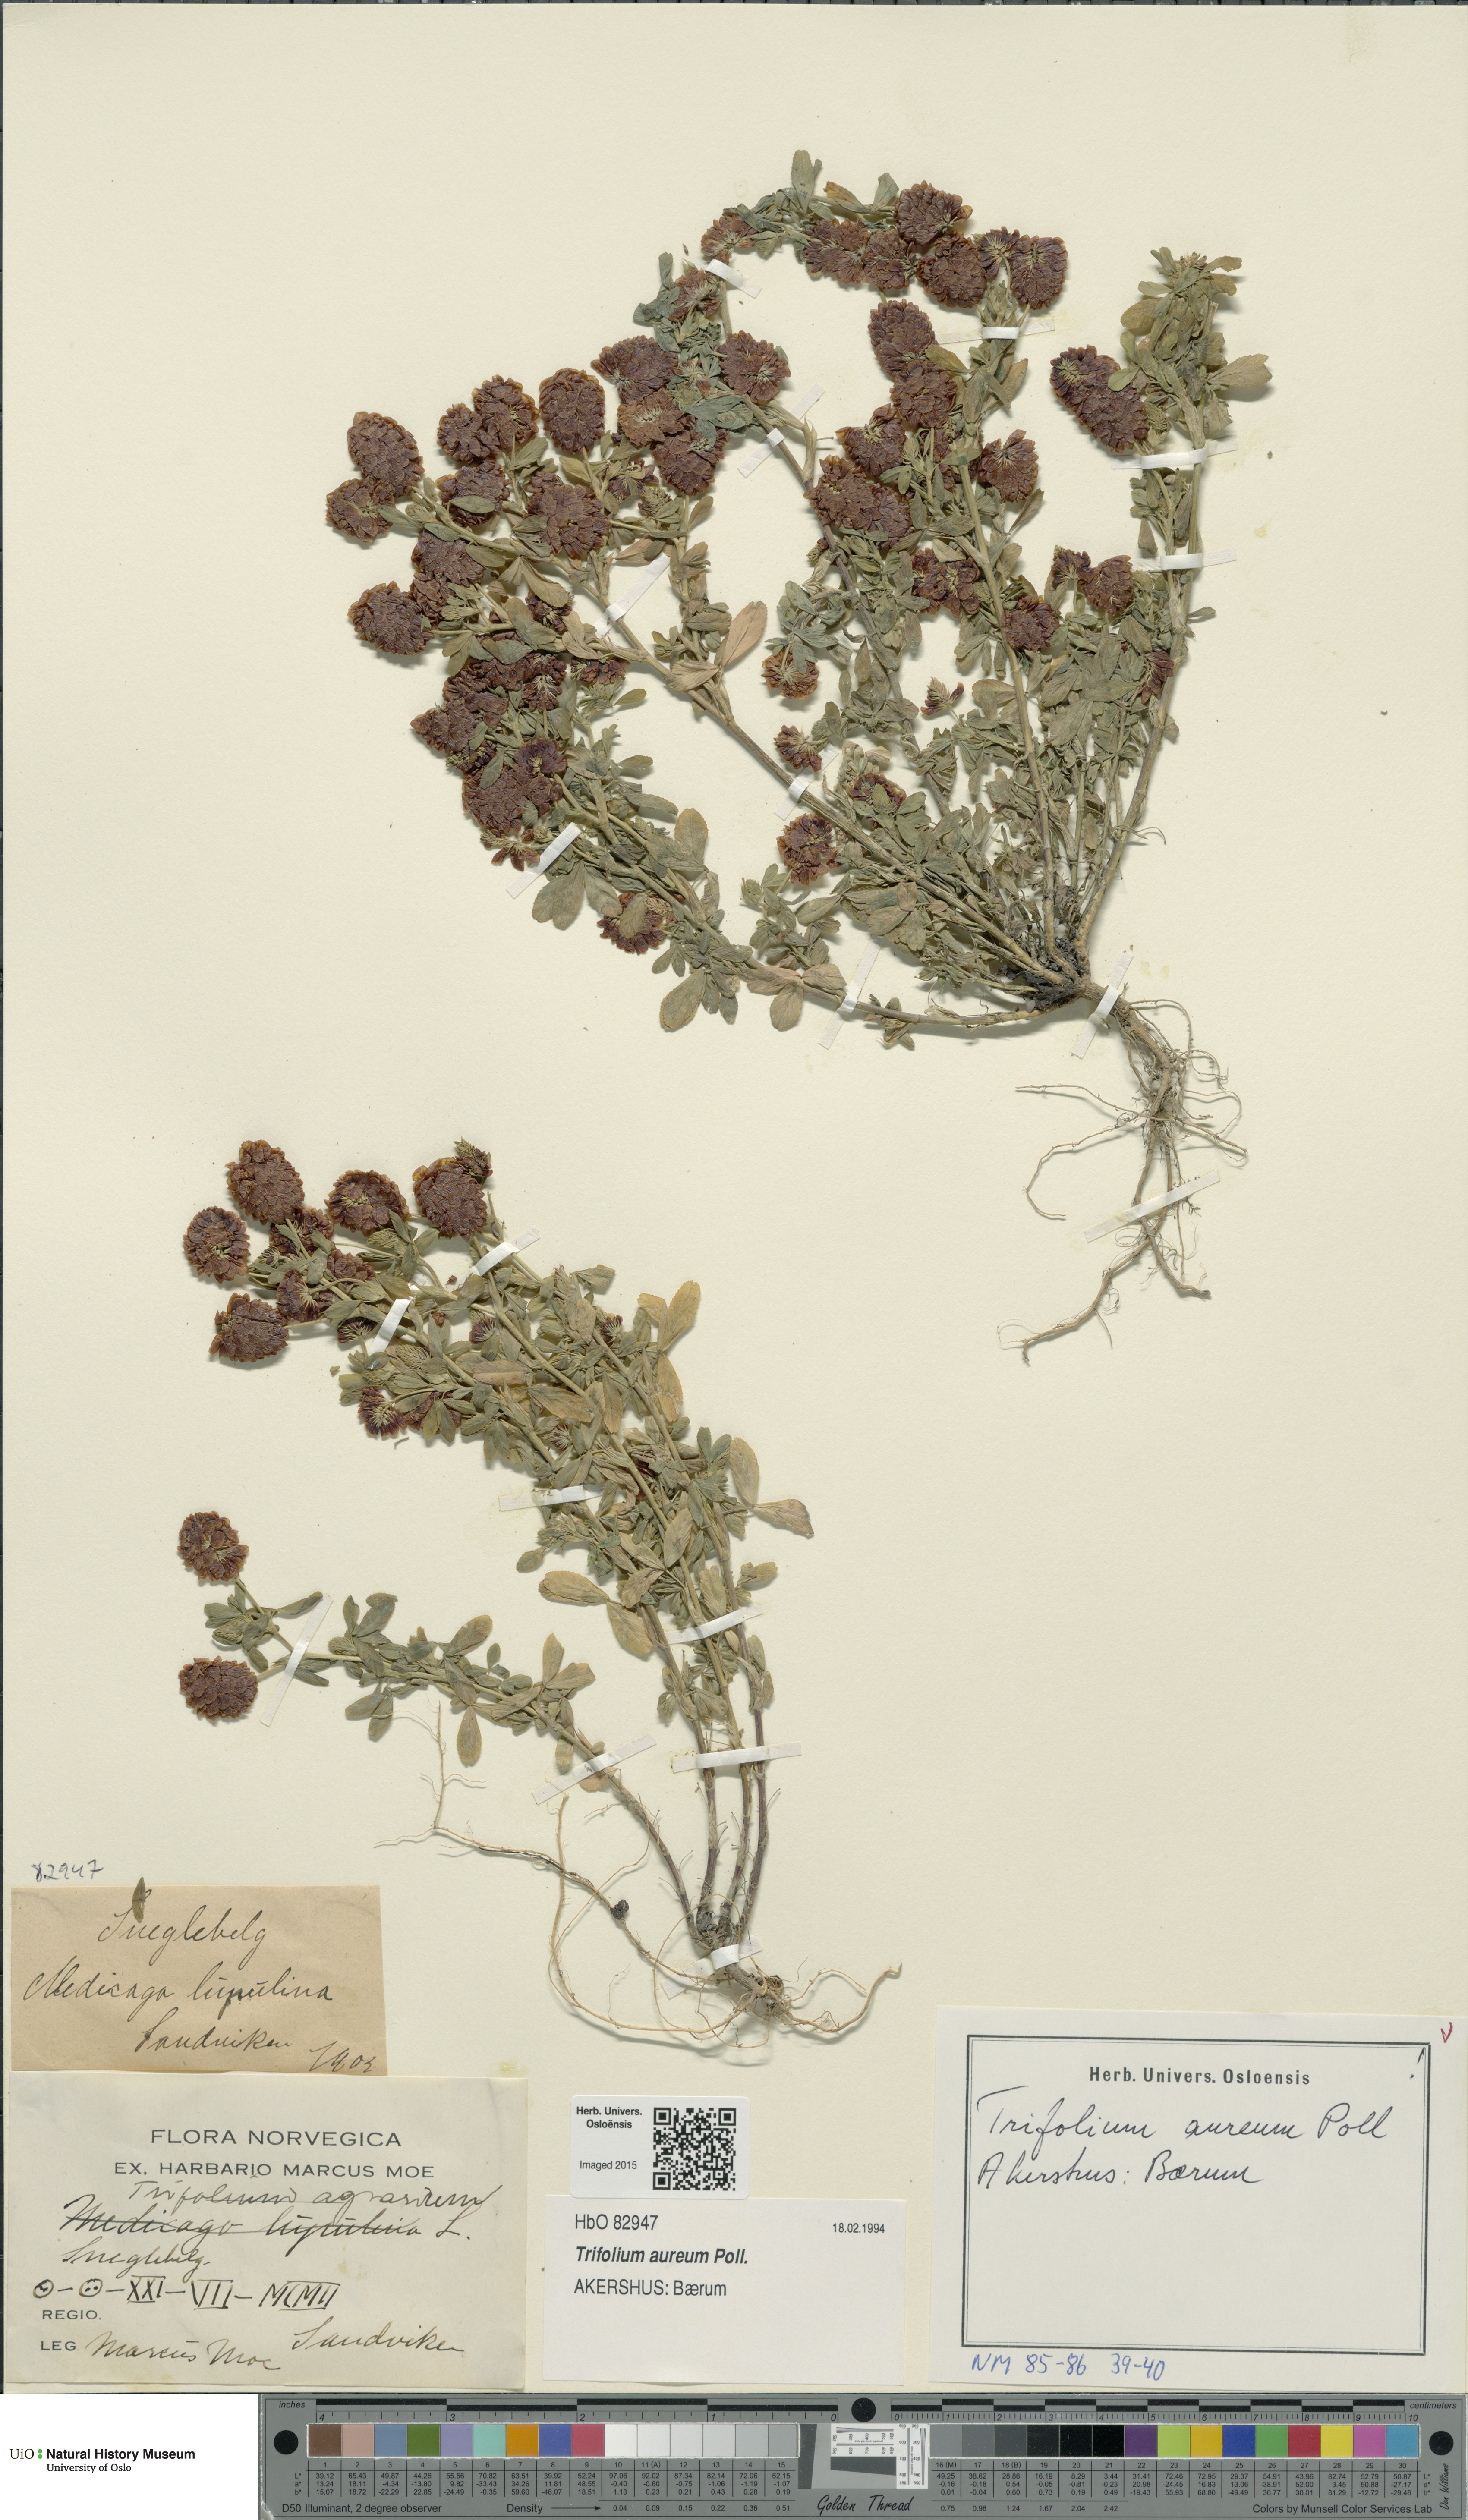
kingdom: Plantae
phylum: Tracheophyta
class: Magnoliopsida
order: Fabales
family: Fabaceae
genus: Trifolium
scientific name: Trifolium aureum
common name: Golden clover
